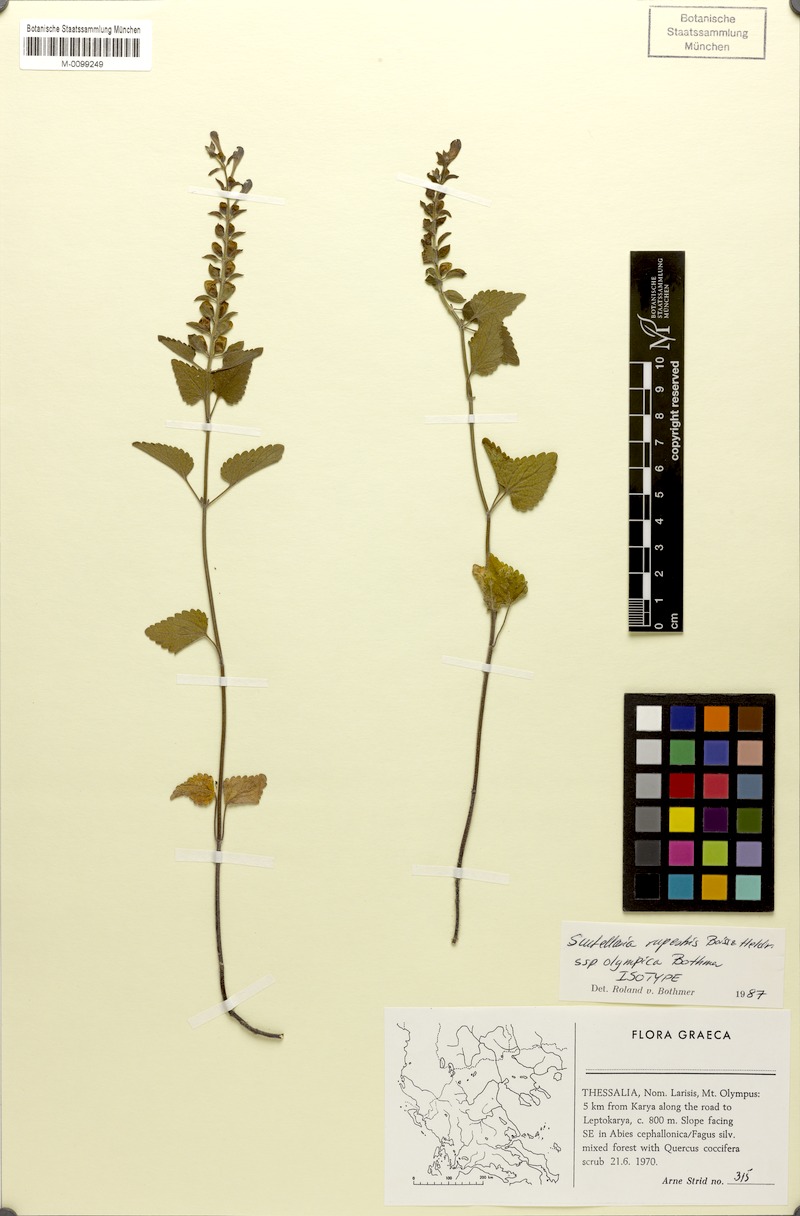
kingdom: Plantae
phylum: Tracheophyta
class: Magnoliopsida
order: Lamiales
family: Lamiaceae
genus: Scutellaria
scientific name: Scutellaria rupestris
